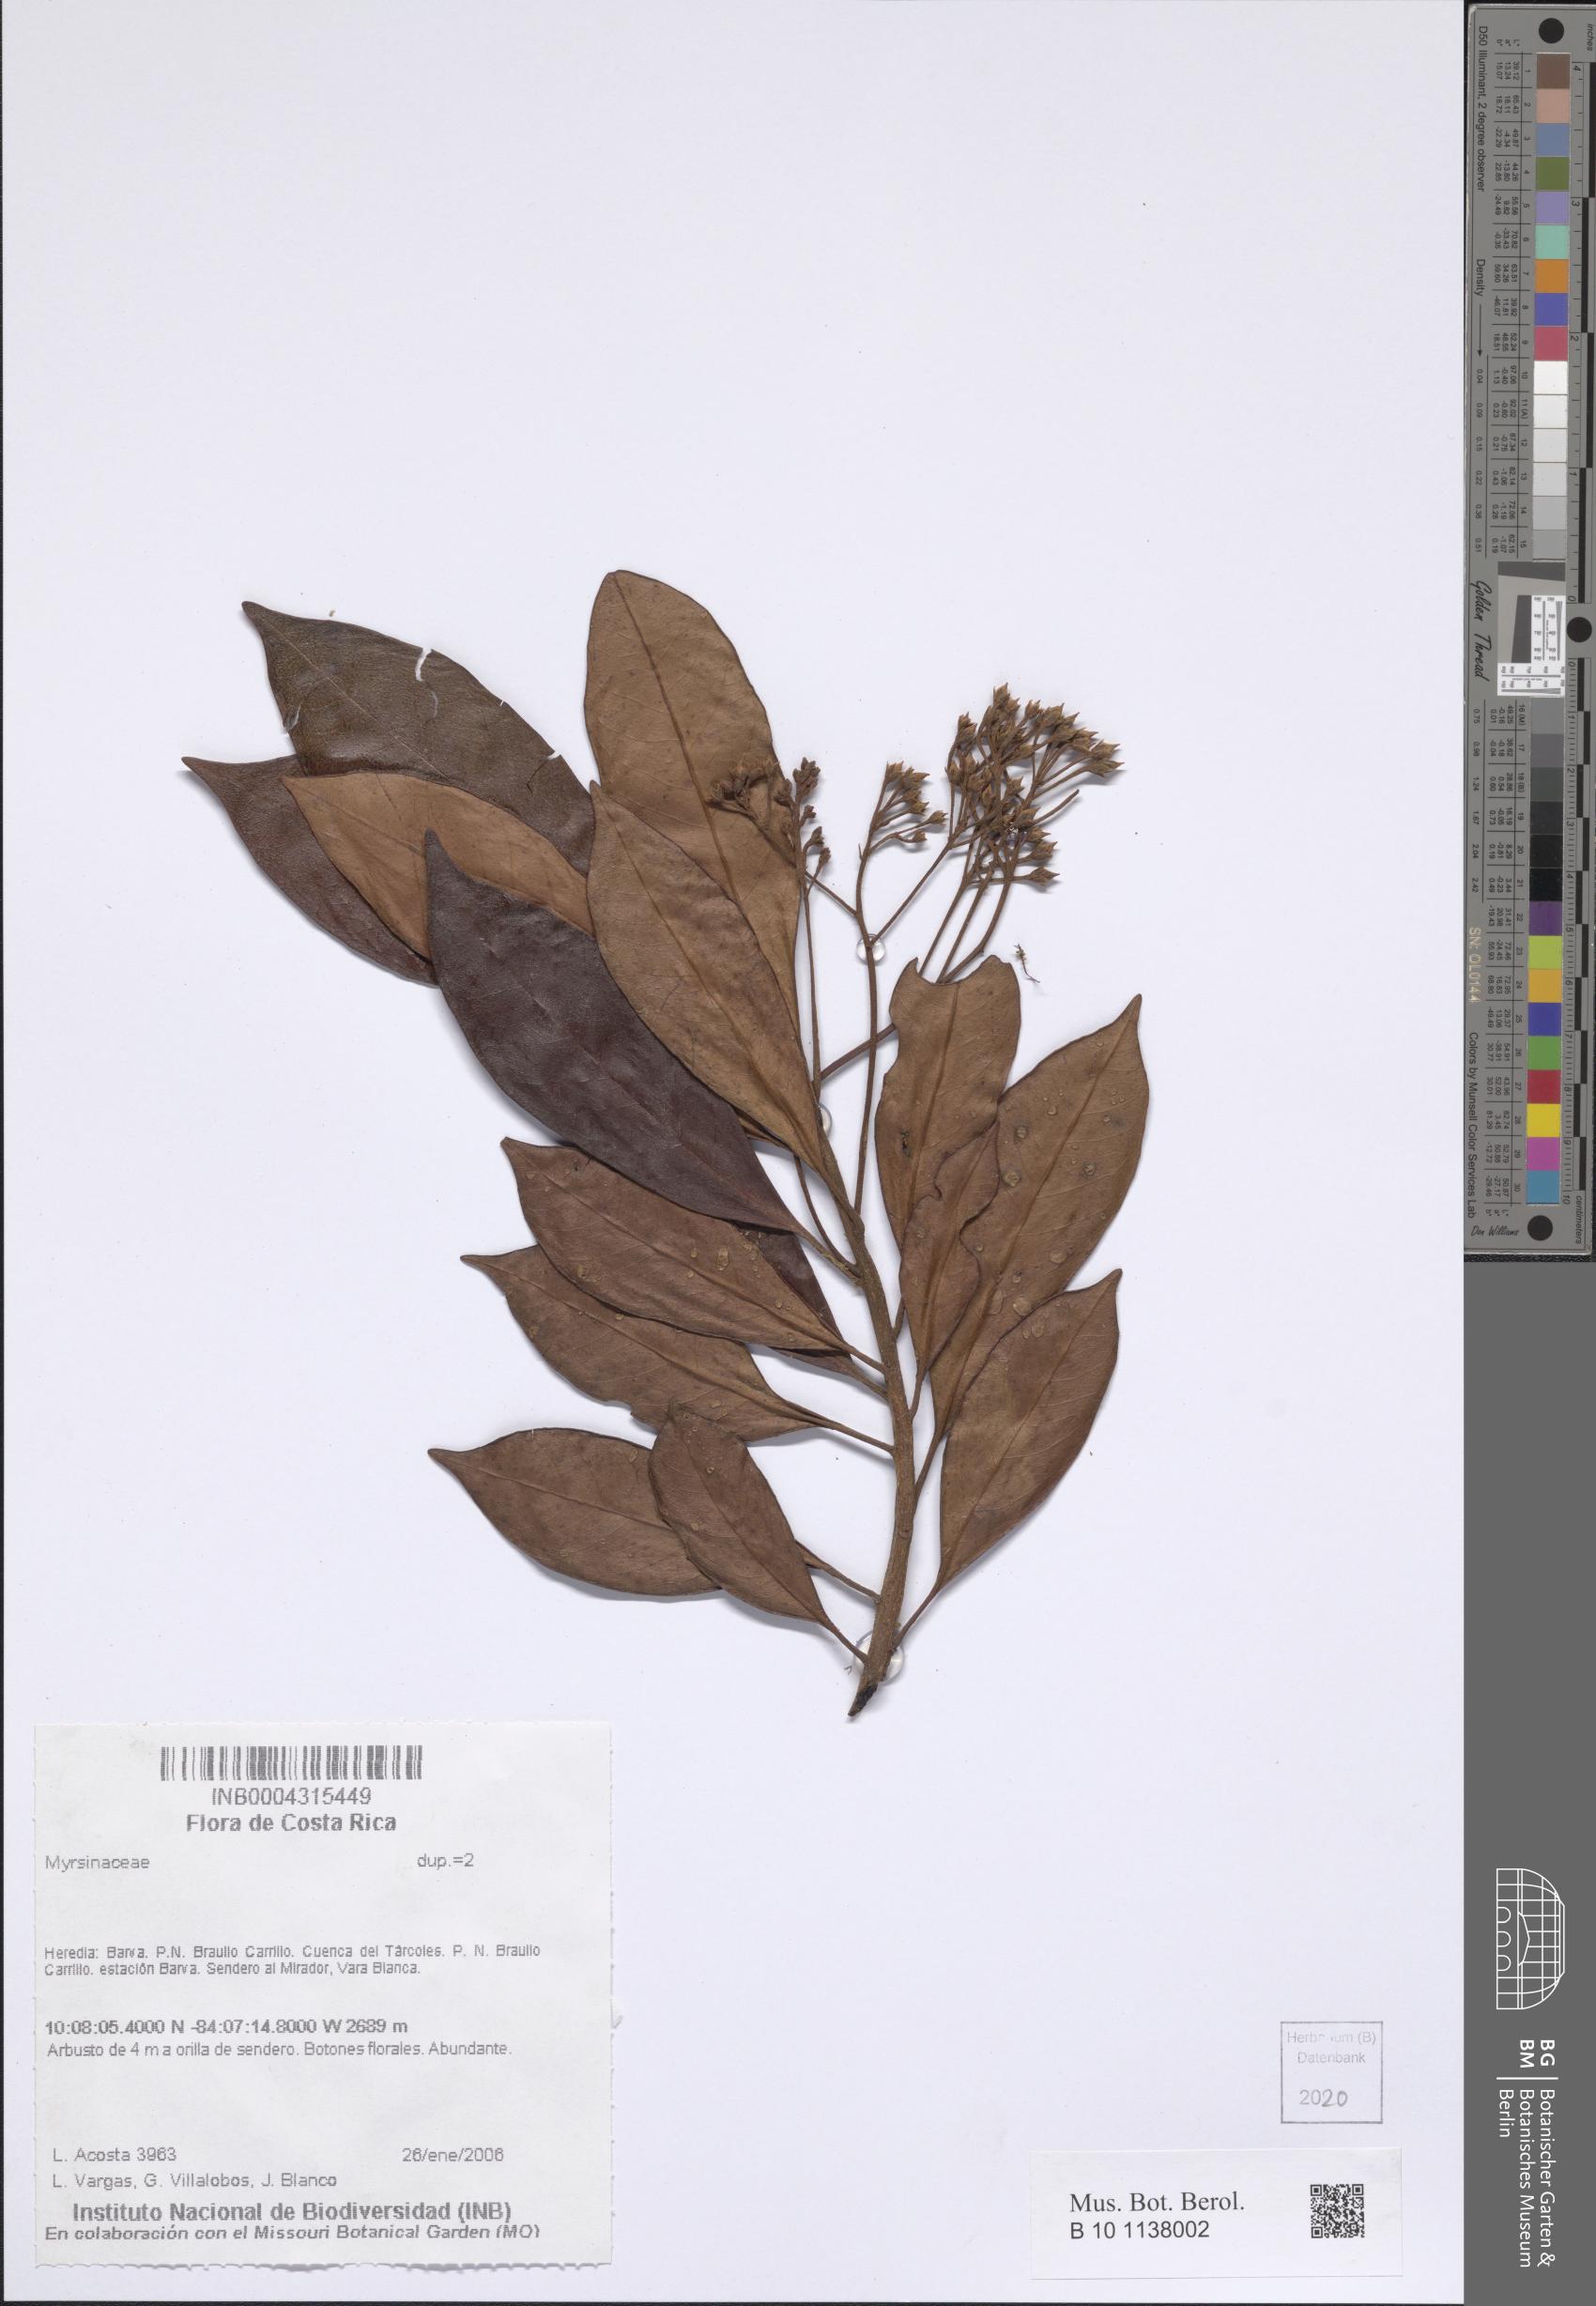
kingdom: Plantae
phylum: Tracheophyta
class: Magnoliopsida
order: Ericales
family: Primulaceae
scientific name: Primulaceae
